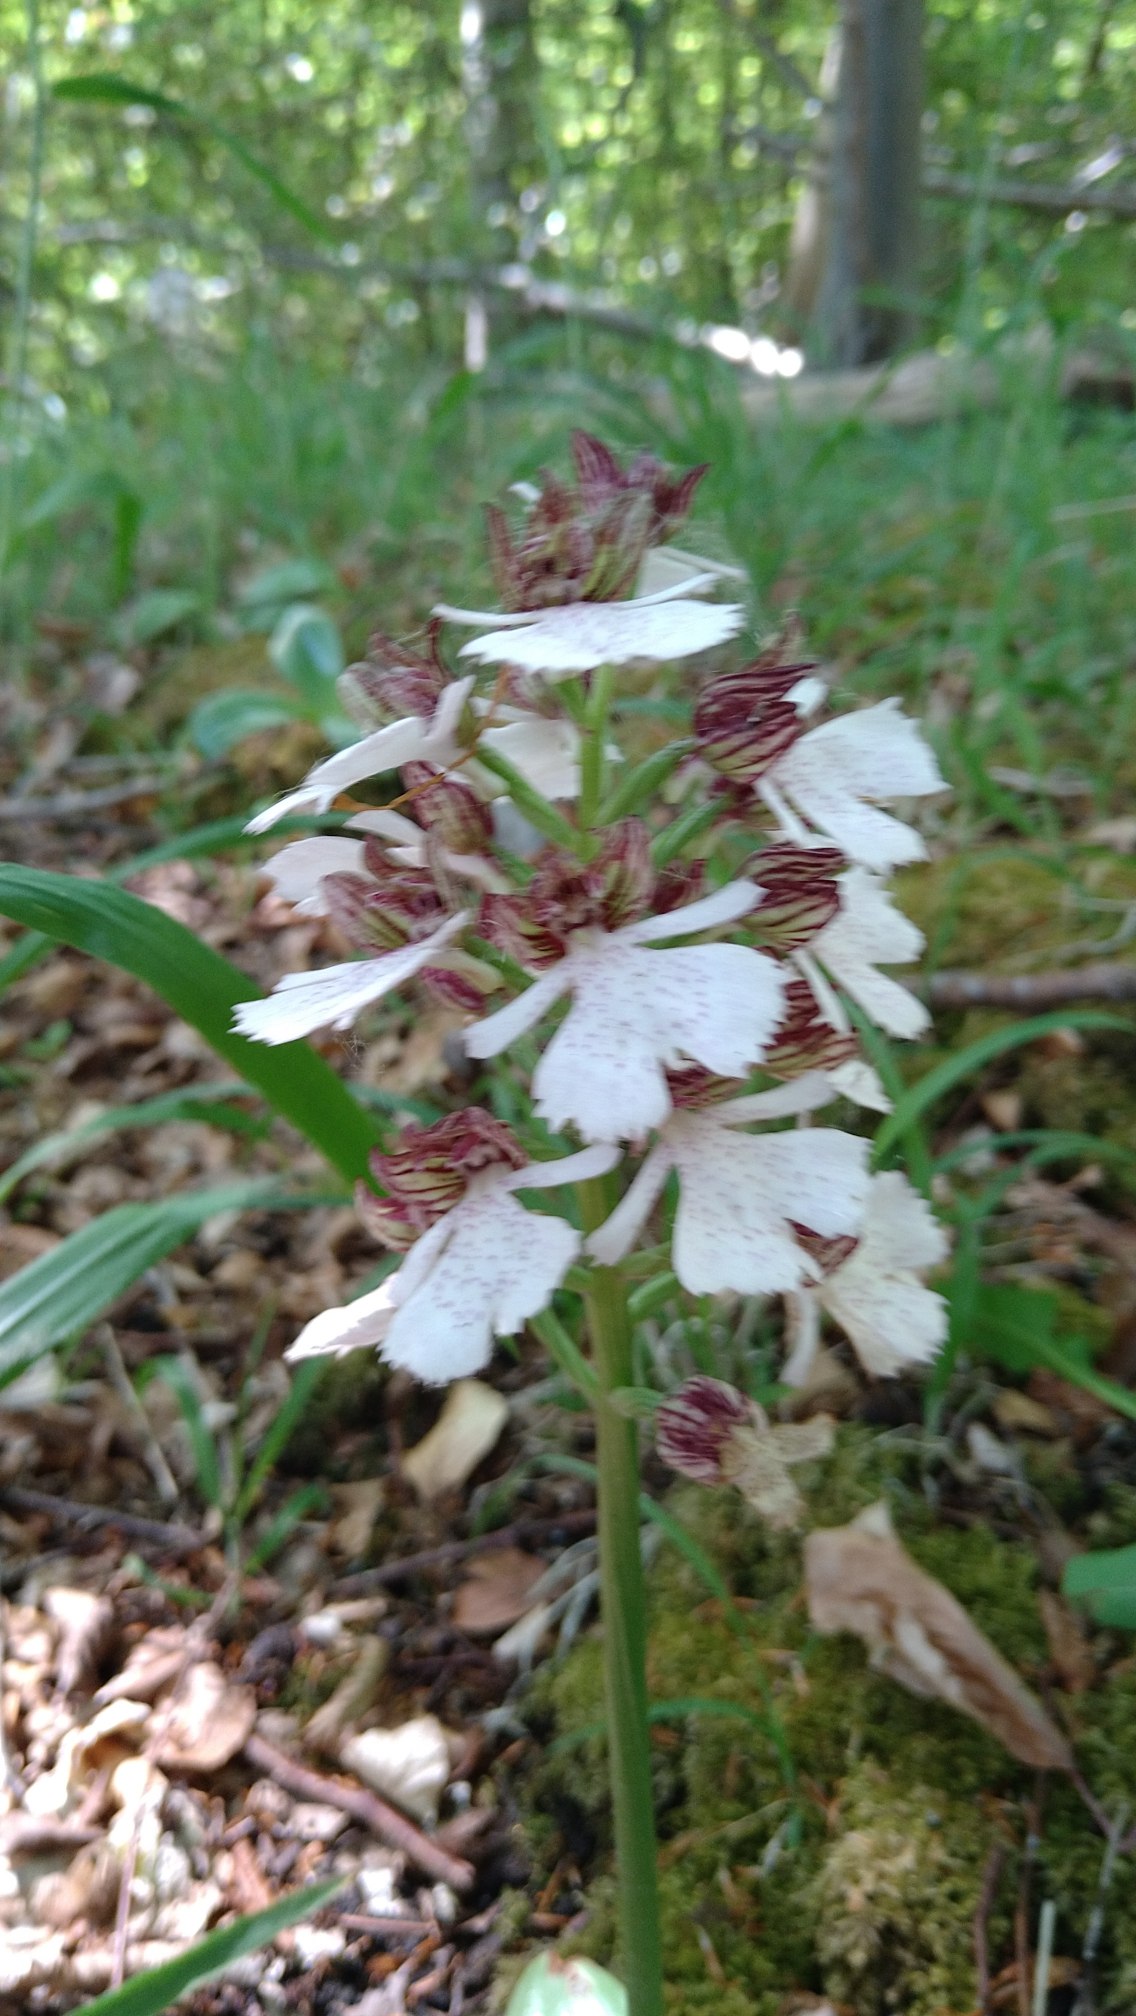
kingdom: Plantae
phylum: Tracheophyta
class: Liliopsida
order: Asparagales
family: Orchidaceae
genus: Orchis
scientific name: Orchis purpurea
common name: Stor gøgeurt
